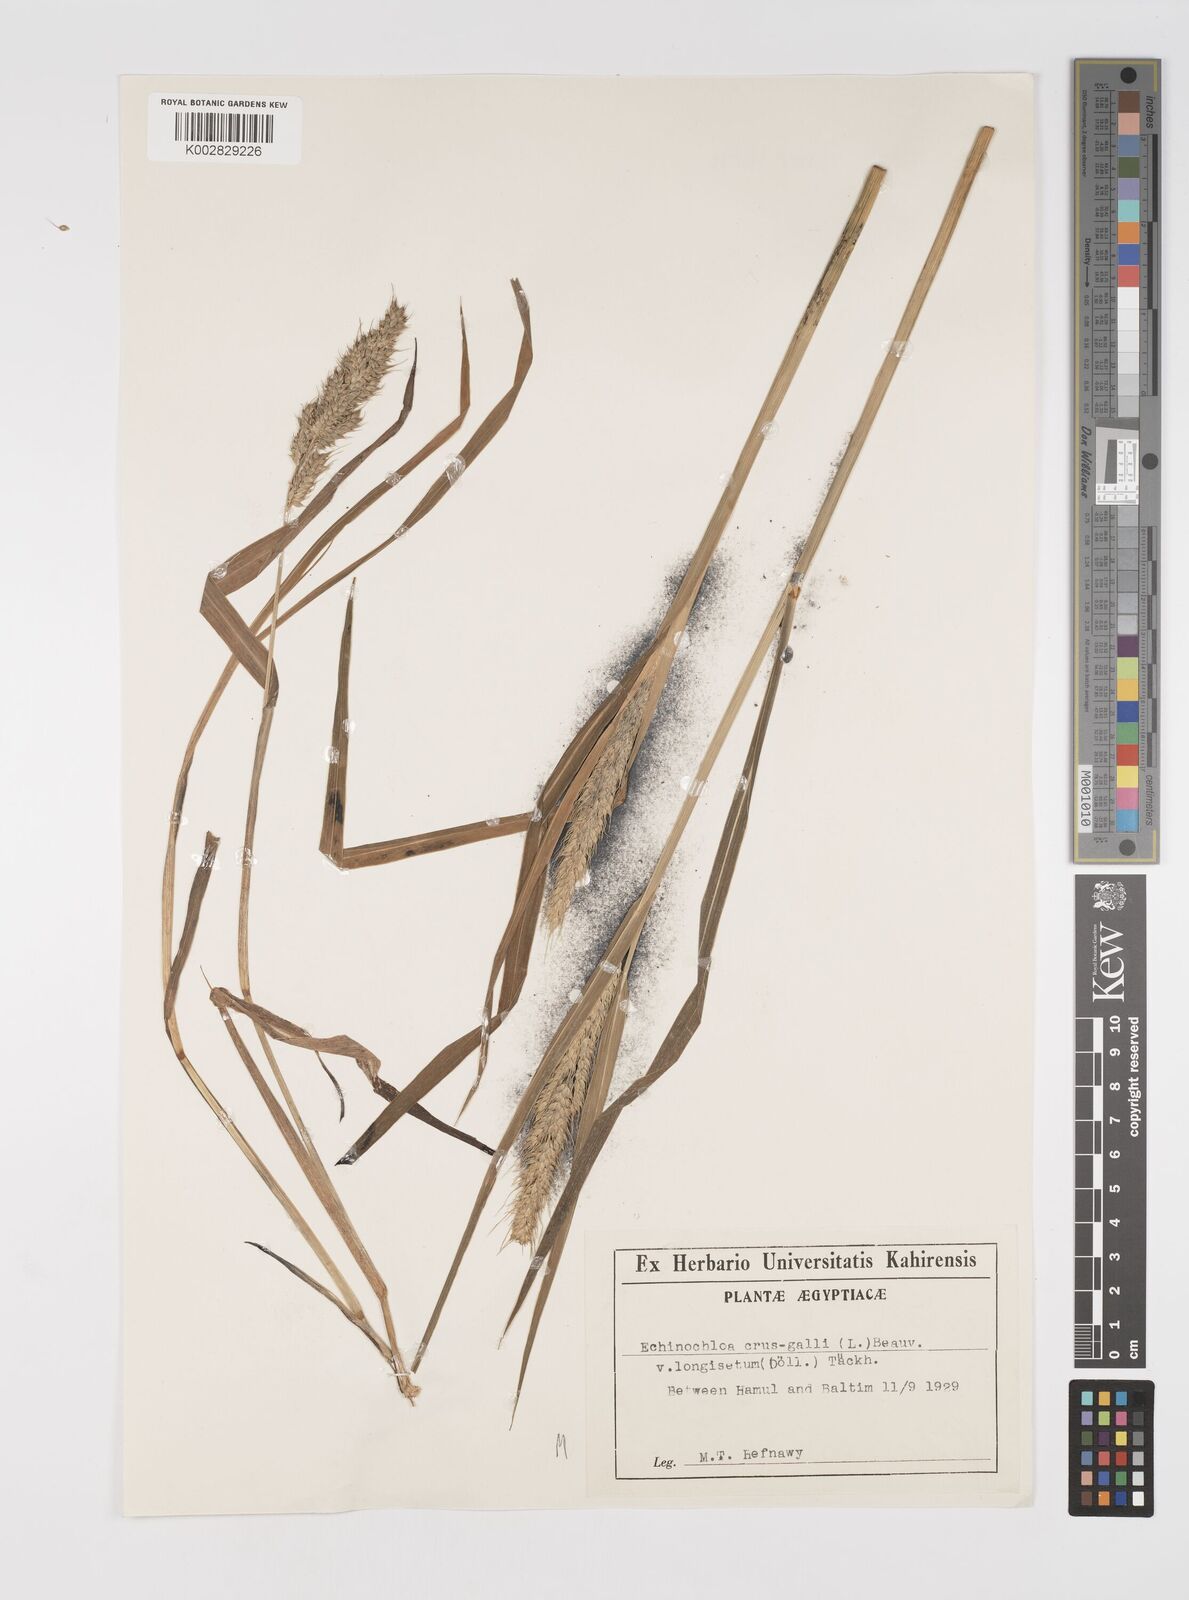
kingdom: Plantae
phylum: Tracheophyta
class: Liliopsida
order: Poales
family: Poaceae
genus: Echinochloa
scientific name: Echinochloa crus-galli
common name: Cockspur
